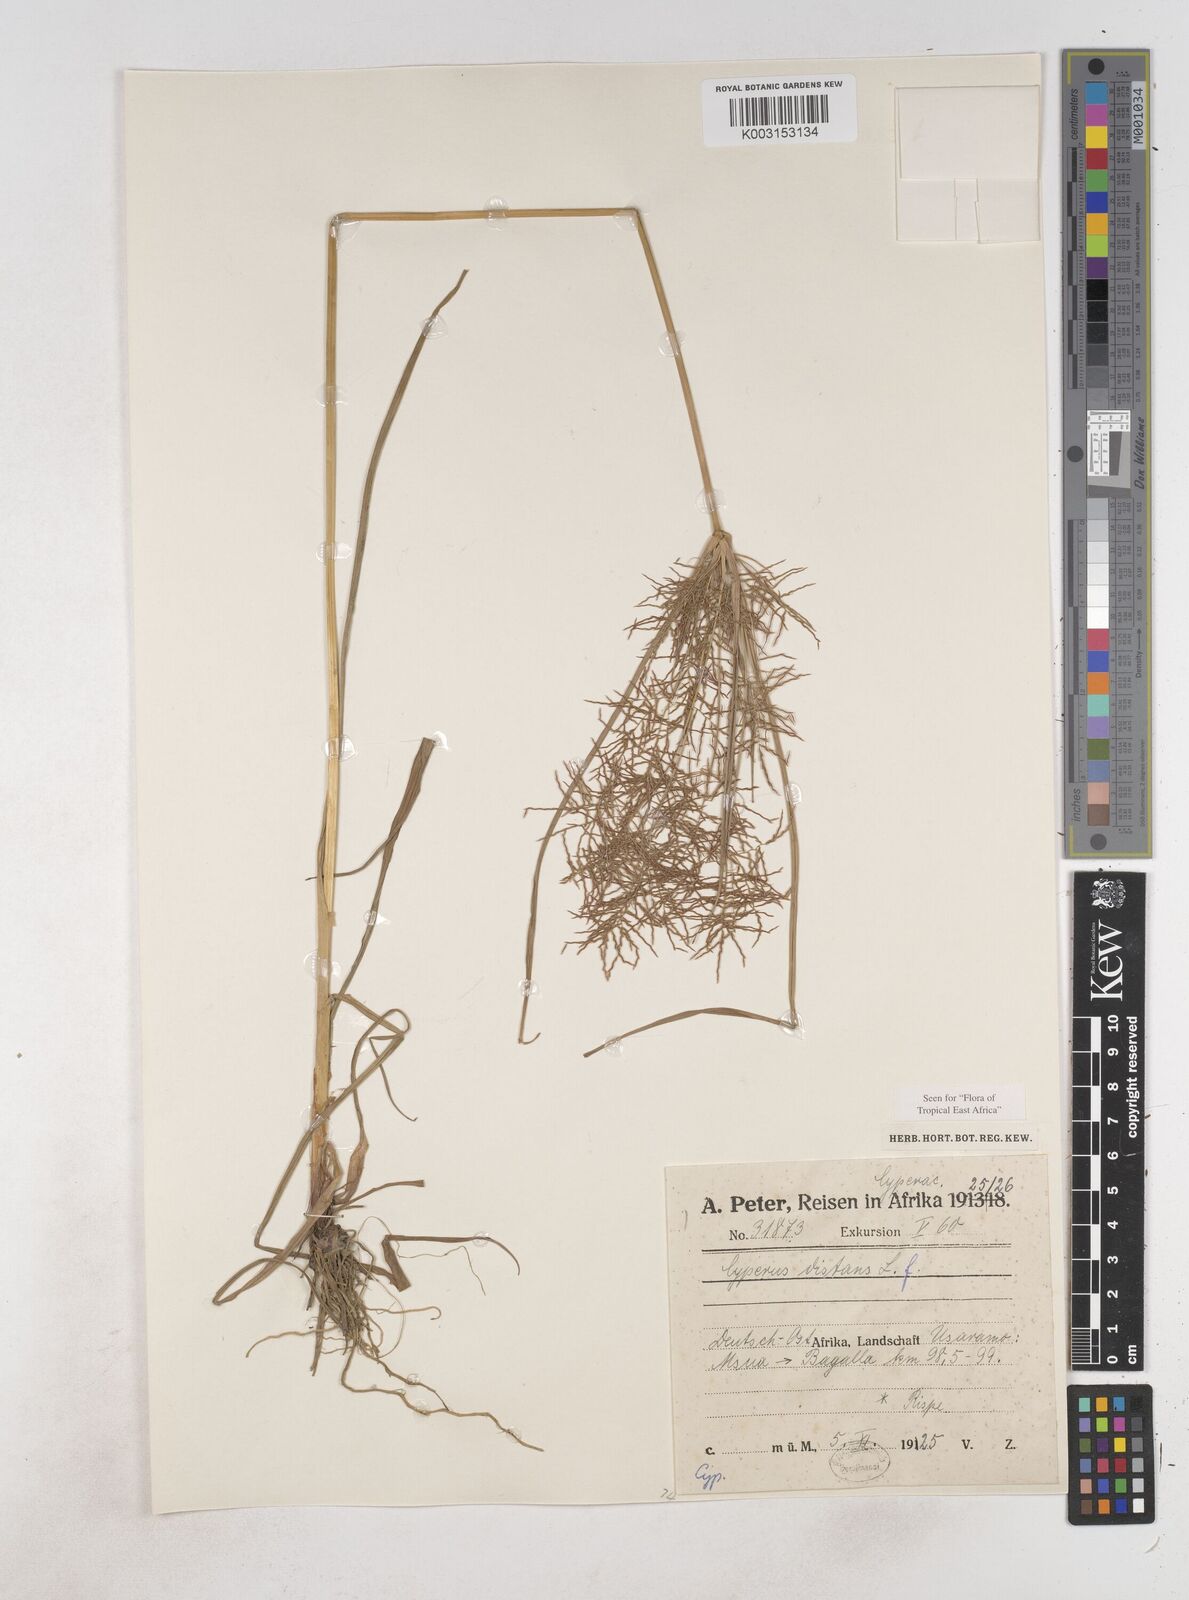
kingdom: Plantae
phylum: Tracheophyta
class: Liliopsida
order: Poales
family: Cyperaceae
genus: Cyperus
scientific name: Cyperus distans
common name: Slender cyperus
